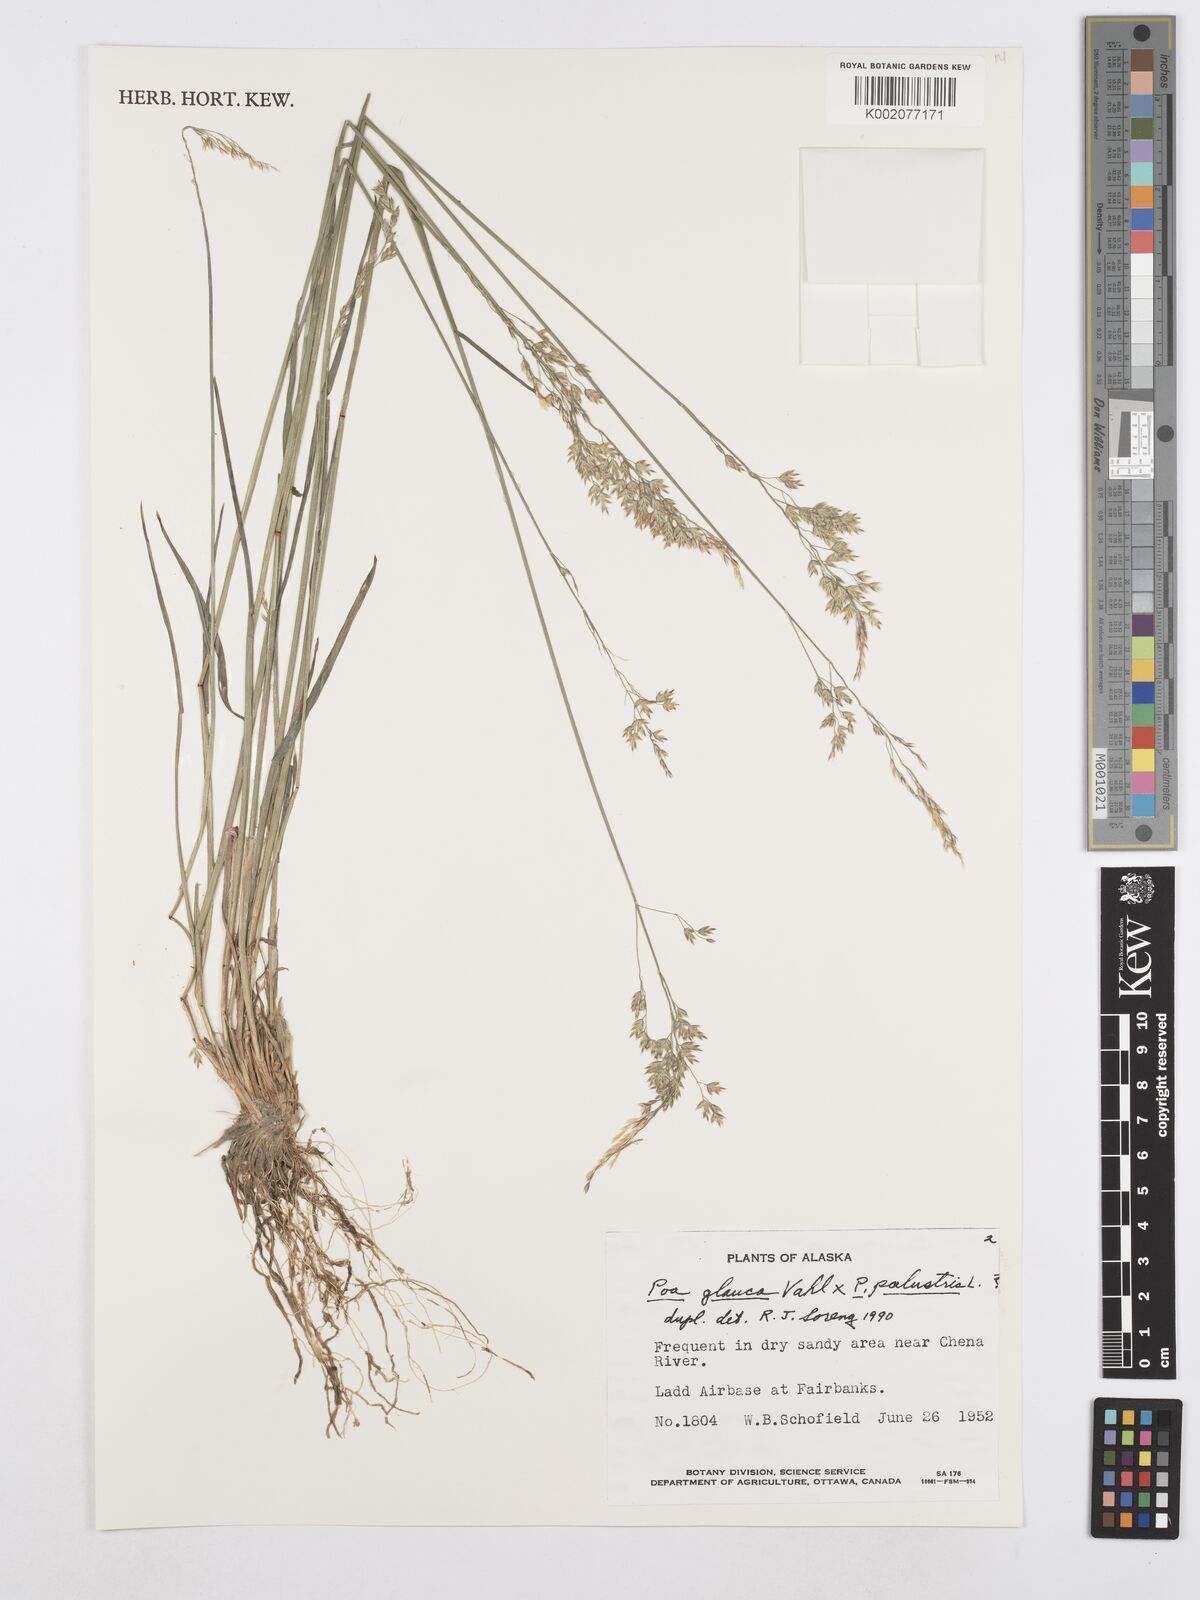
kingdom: Plantae
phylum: Tracheophyta
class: Liliopsida
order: Poales
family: Poaceae
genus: Poa
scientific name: Poa palustris
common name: Swamp meadow-grass
